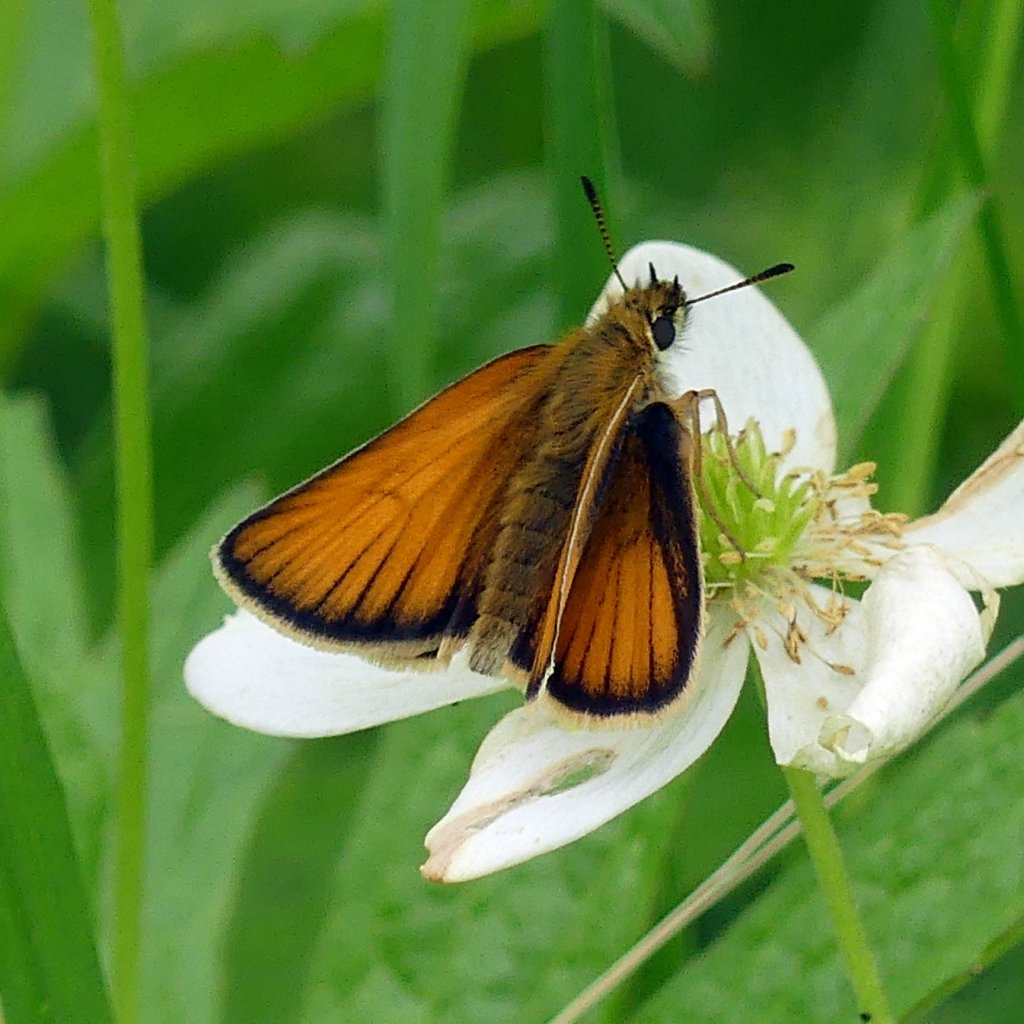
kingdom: Animalia
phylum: Arthropoda
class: Insecta
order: Lepidoptera
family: Hesperiidae
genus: Thymelicus
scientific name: Thymelicus lineola
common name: European Skipper
